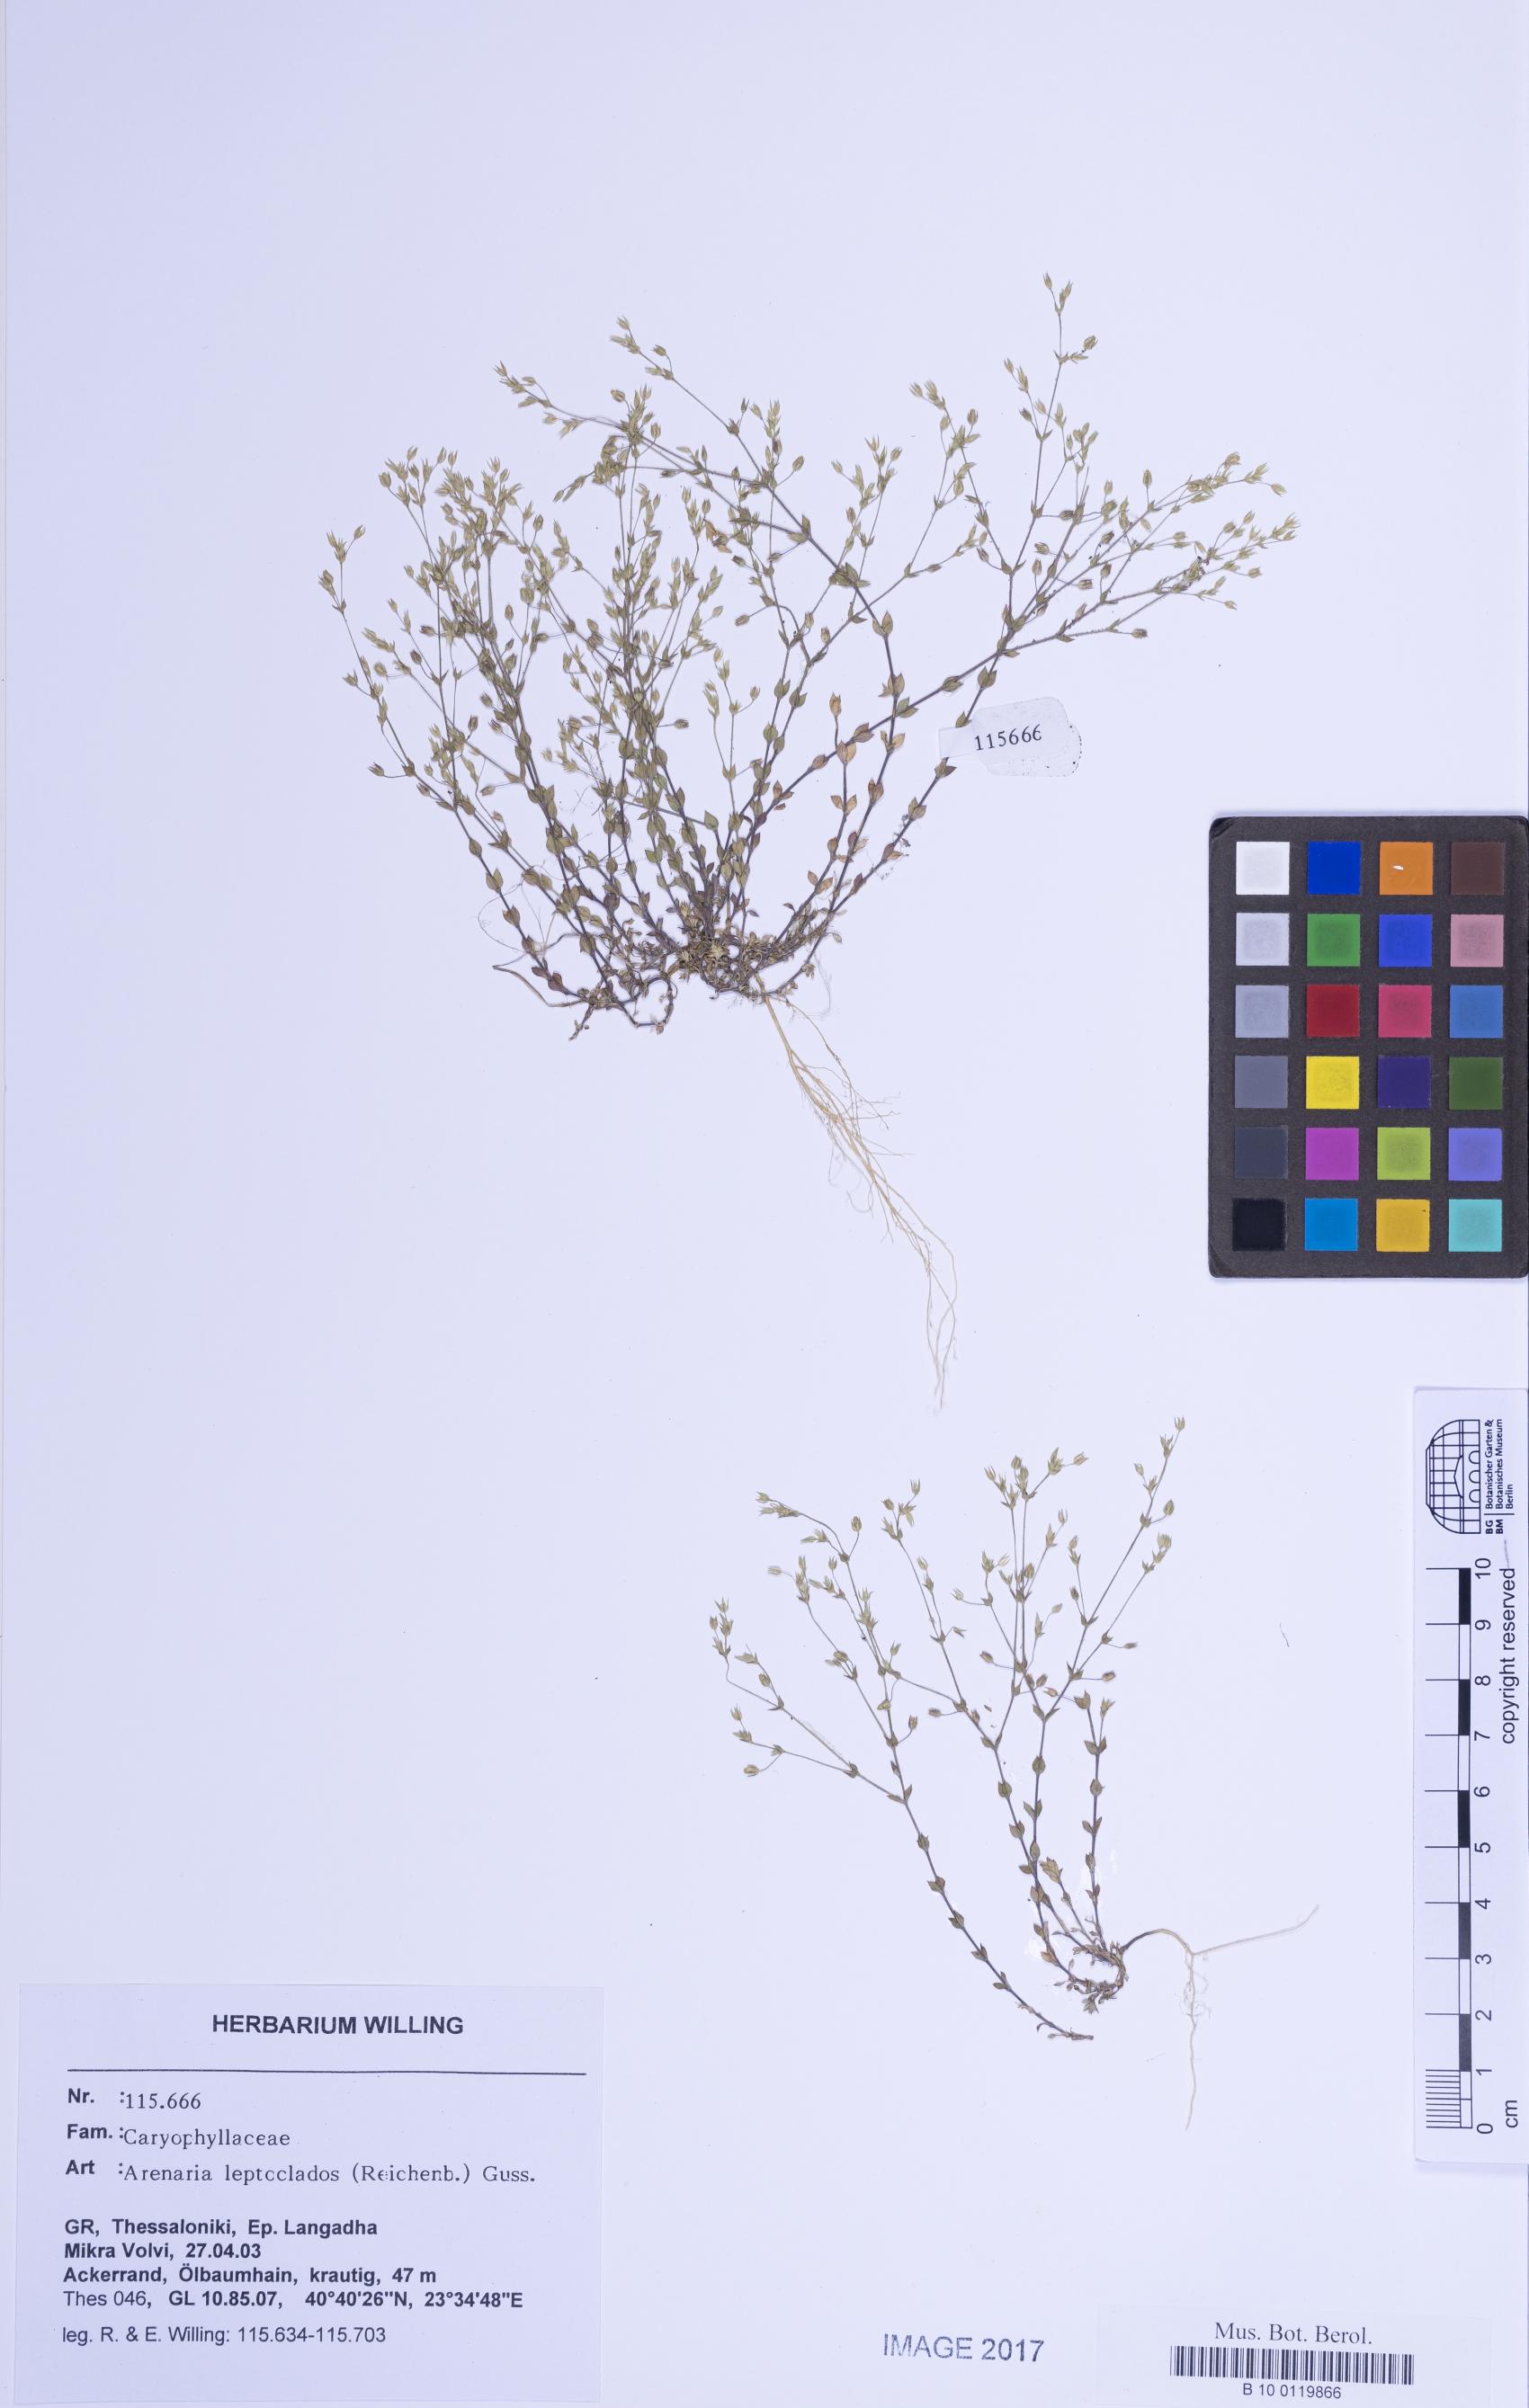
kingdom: Plantae
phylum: Tracheophyta
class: Magnoliopsida
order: Caryophyllales
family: Caryophyllaceae
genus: Arenaria
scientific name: Arenaria leptoclados
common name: Thyme-leaved sandwort
